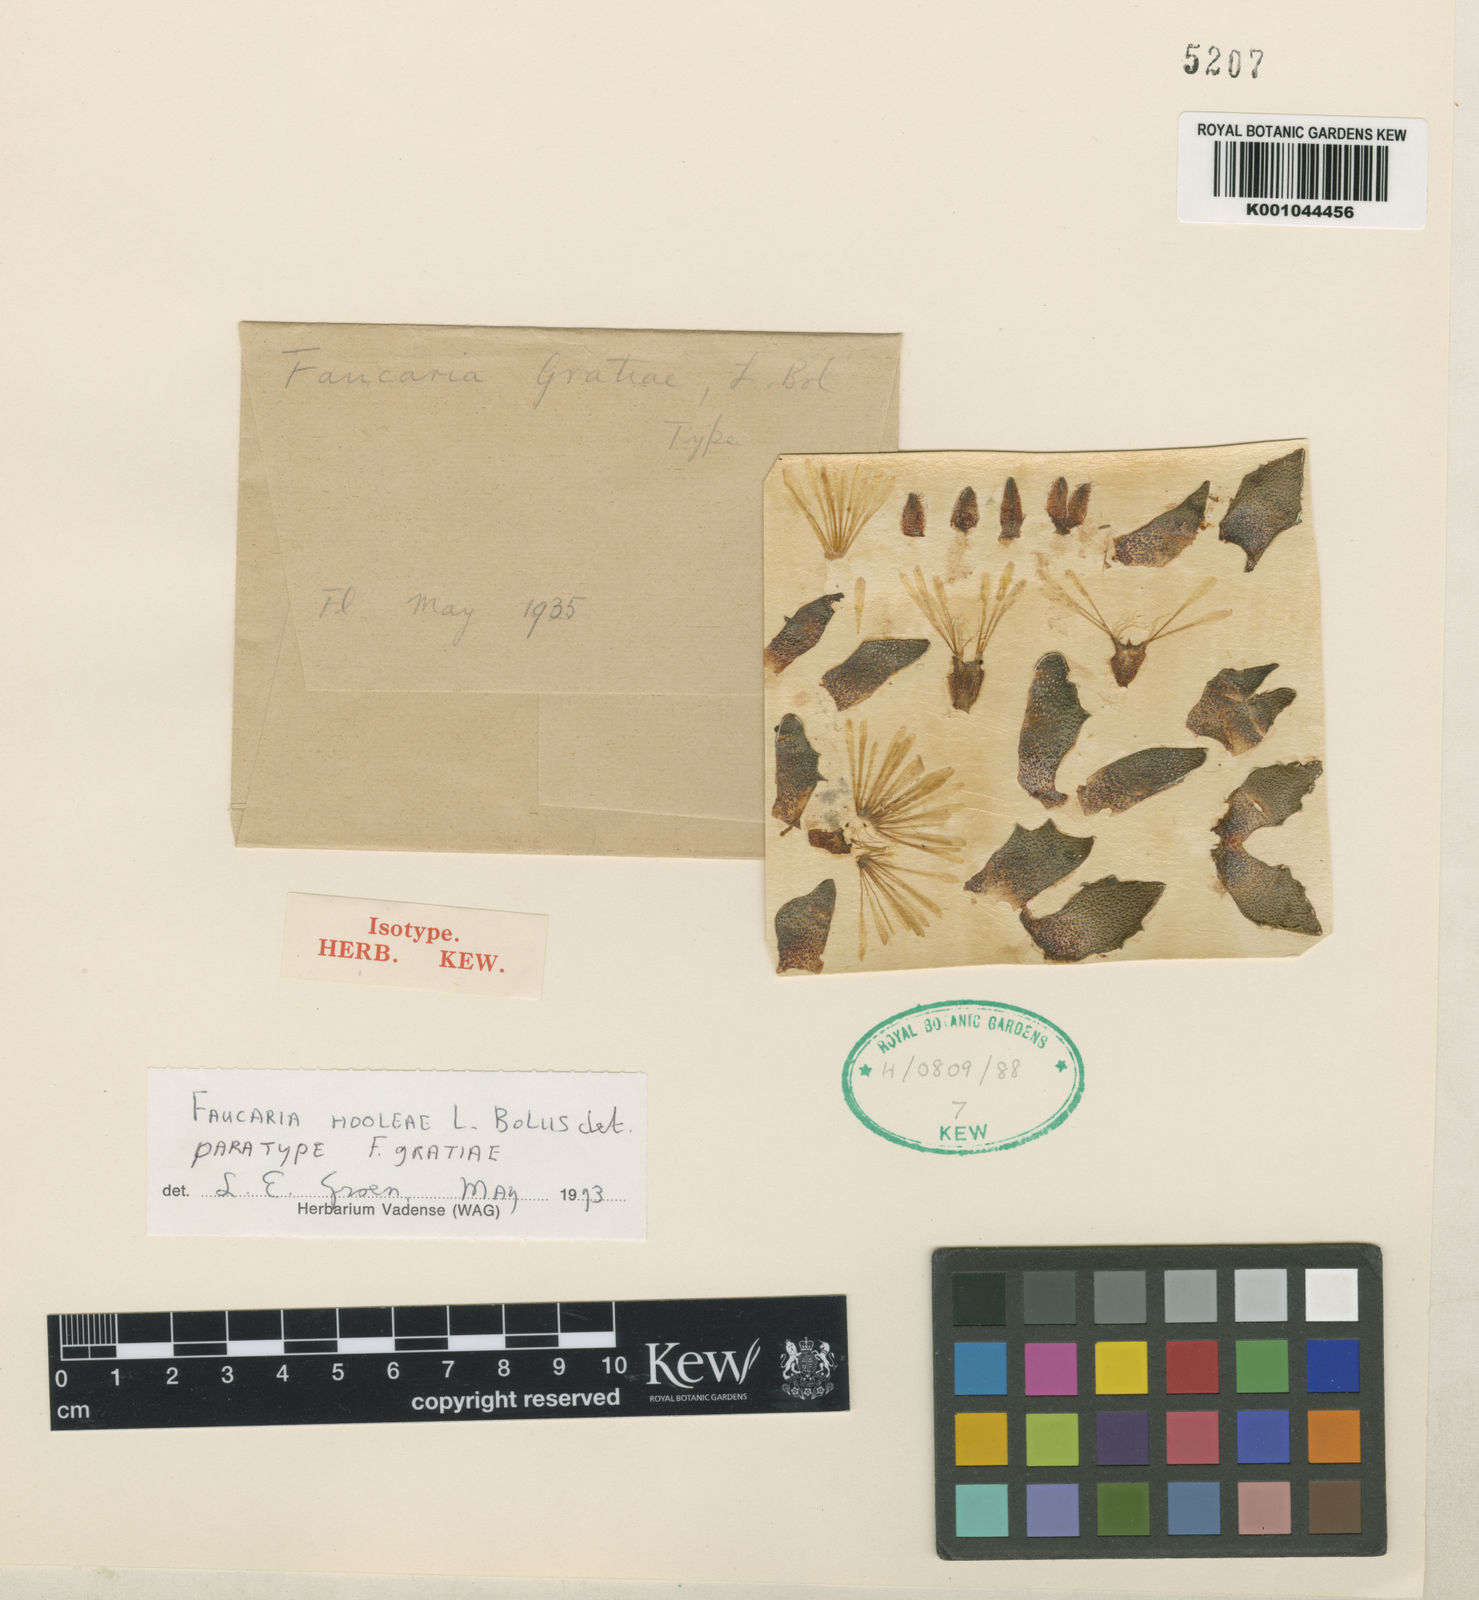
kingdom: Plantae
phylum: Tracheophyta
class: Magnoliopsida
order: Caryophyllales
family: Aizoaceae
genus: Faucaria
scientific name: Faucaria gratiae
